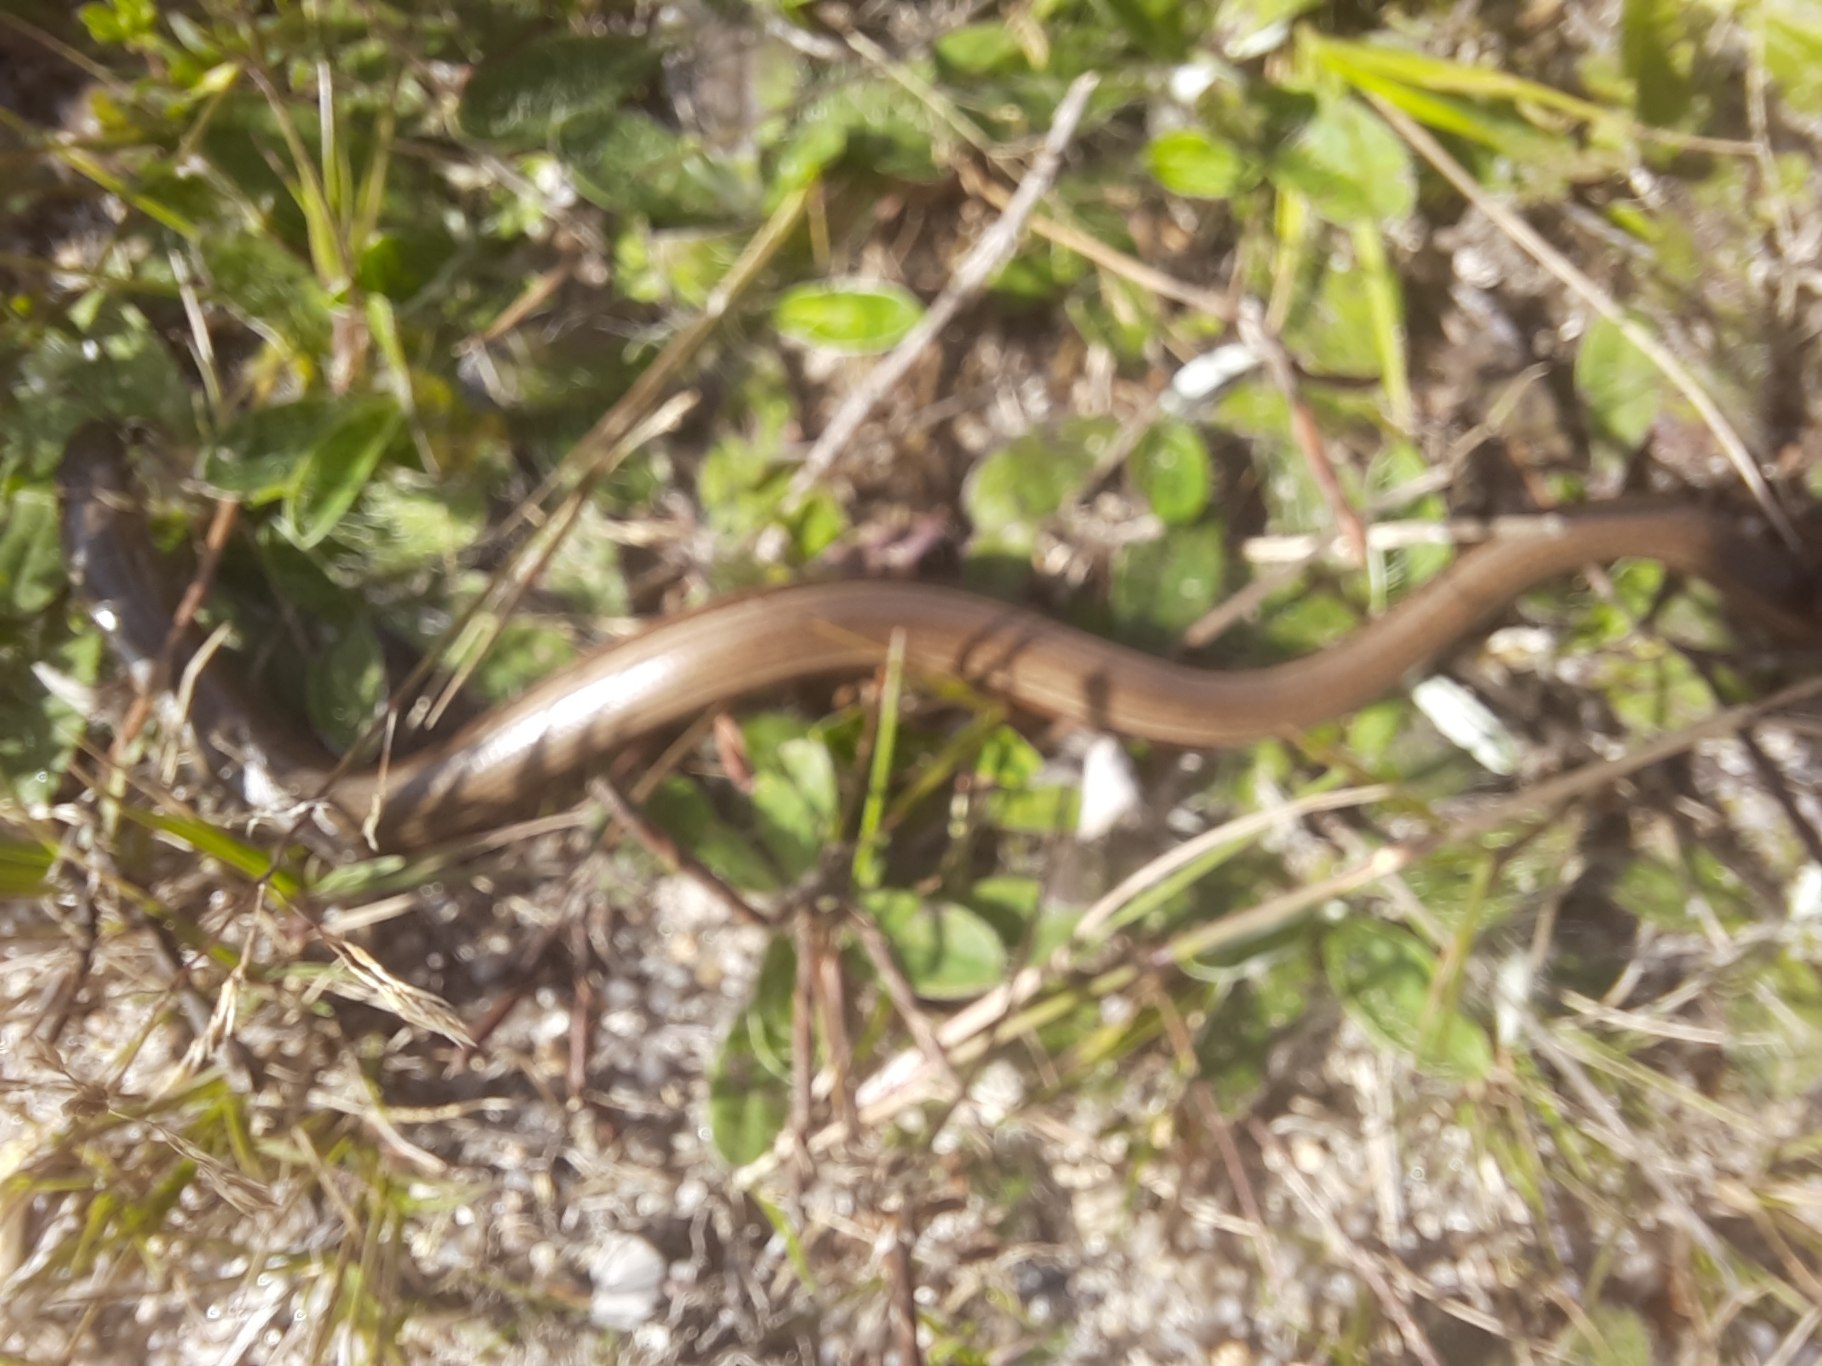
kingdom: Animalia
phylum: Chordata
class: Squamata
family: Anguidae
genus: Anguis
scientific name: Anguis fragilis
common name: Stålorm
